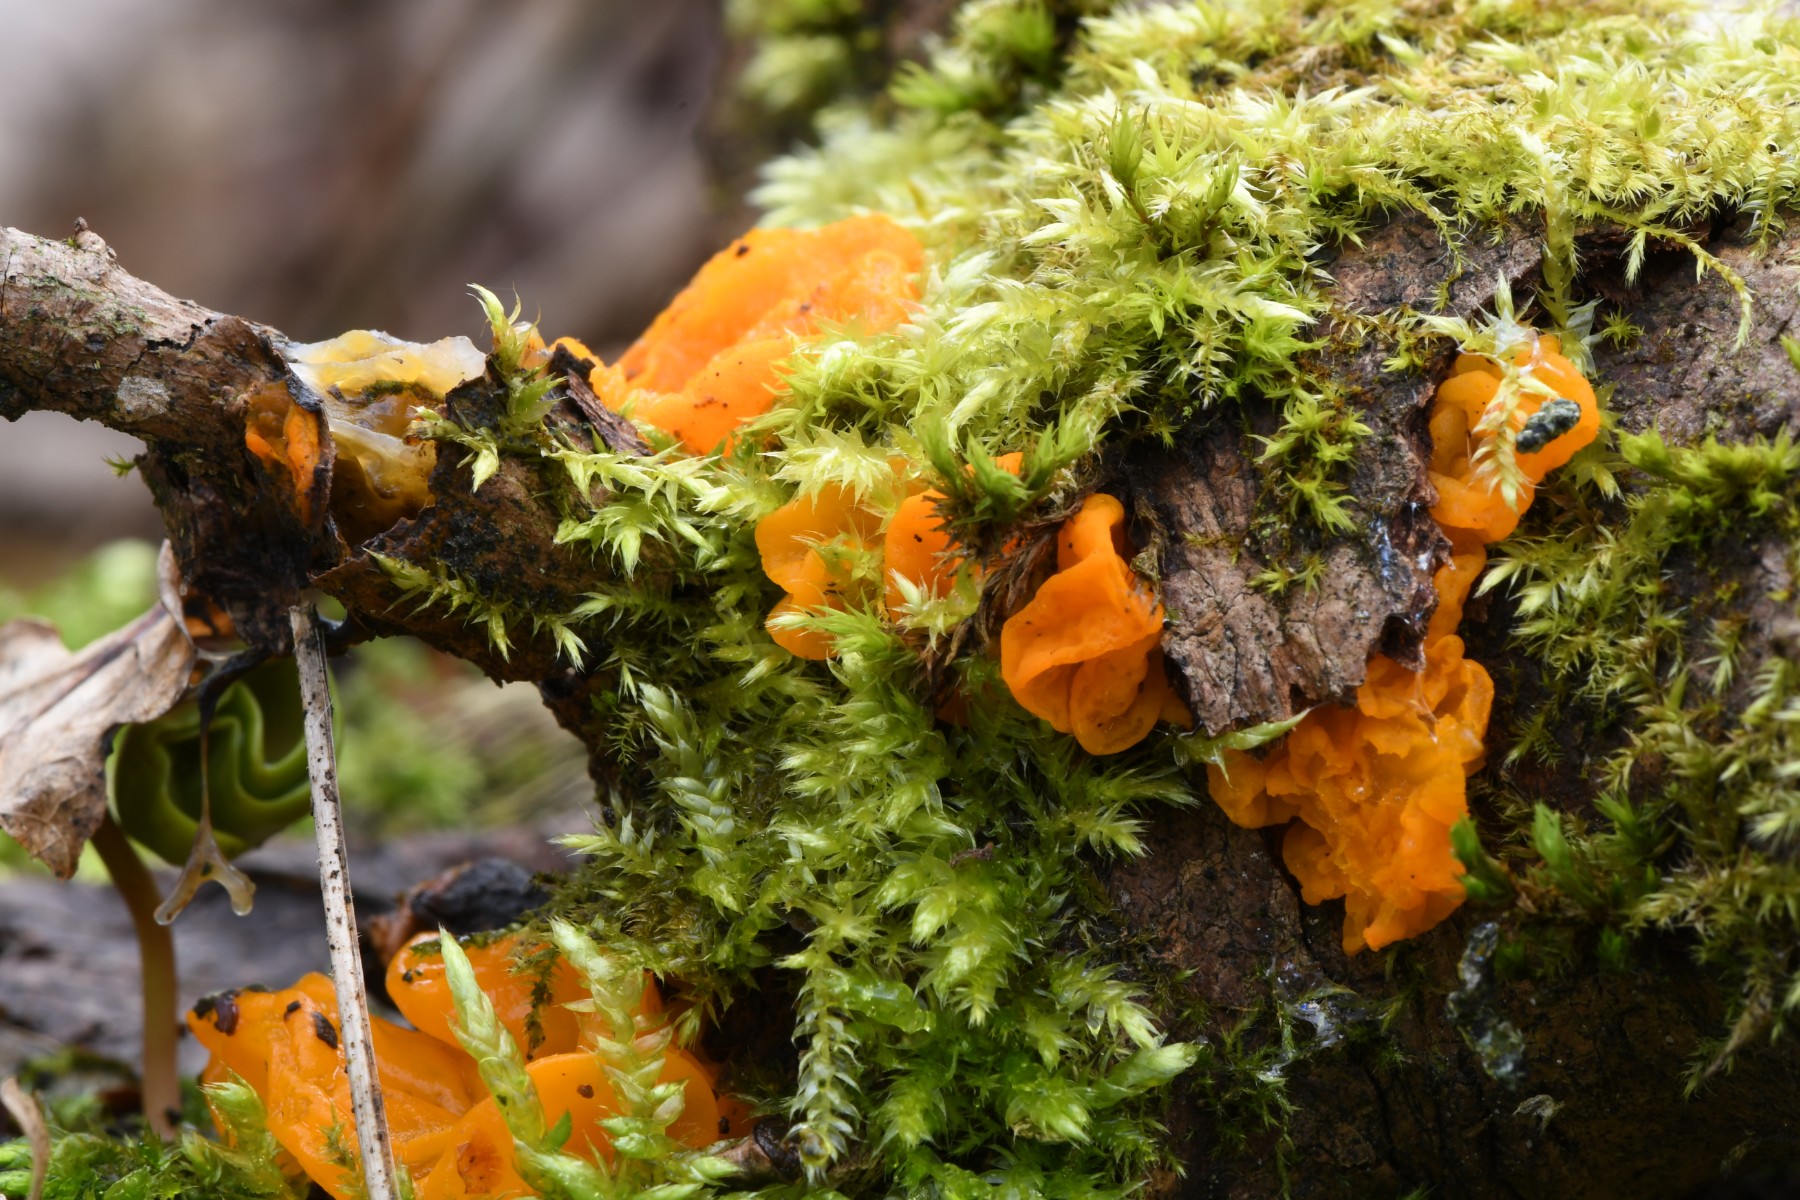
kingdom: Fungi
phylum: Basidiomycota
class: Tremellomycetes
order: Tremellales
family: Tremellaceae
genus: Tremella
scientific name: Tremella mesenterica
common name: gul bævresvamp
